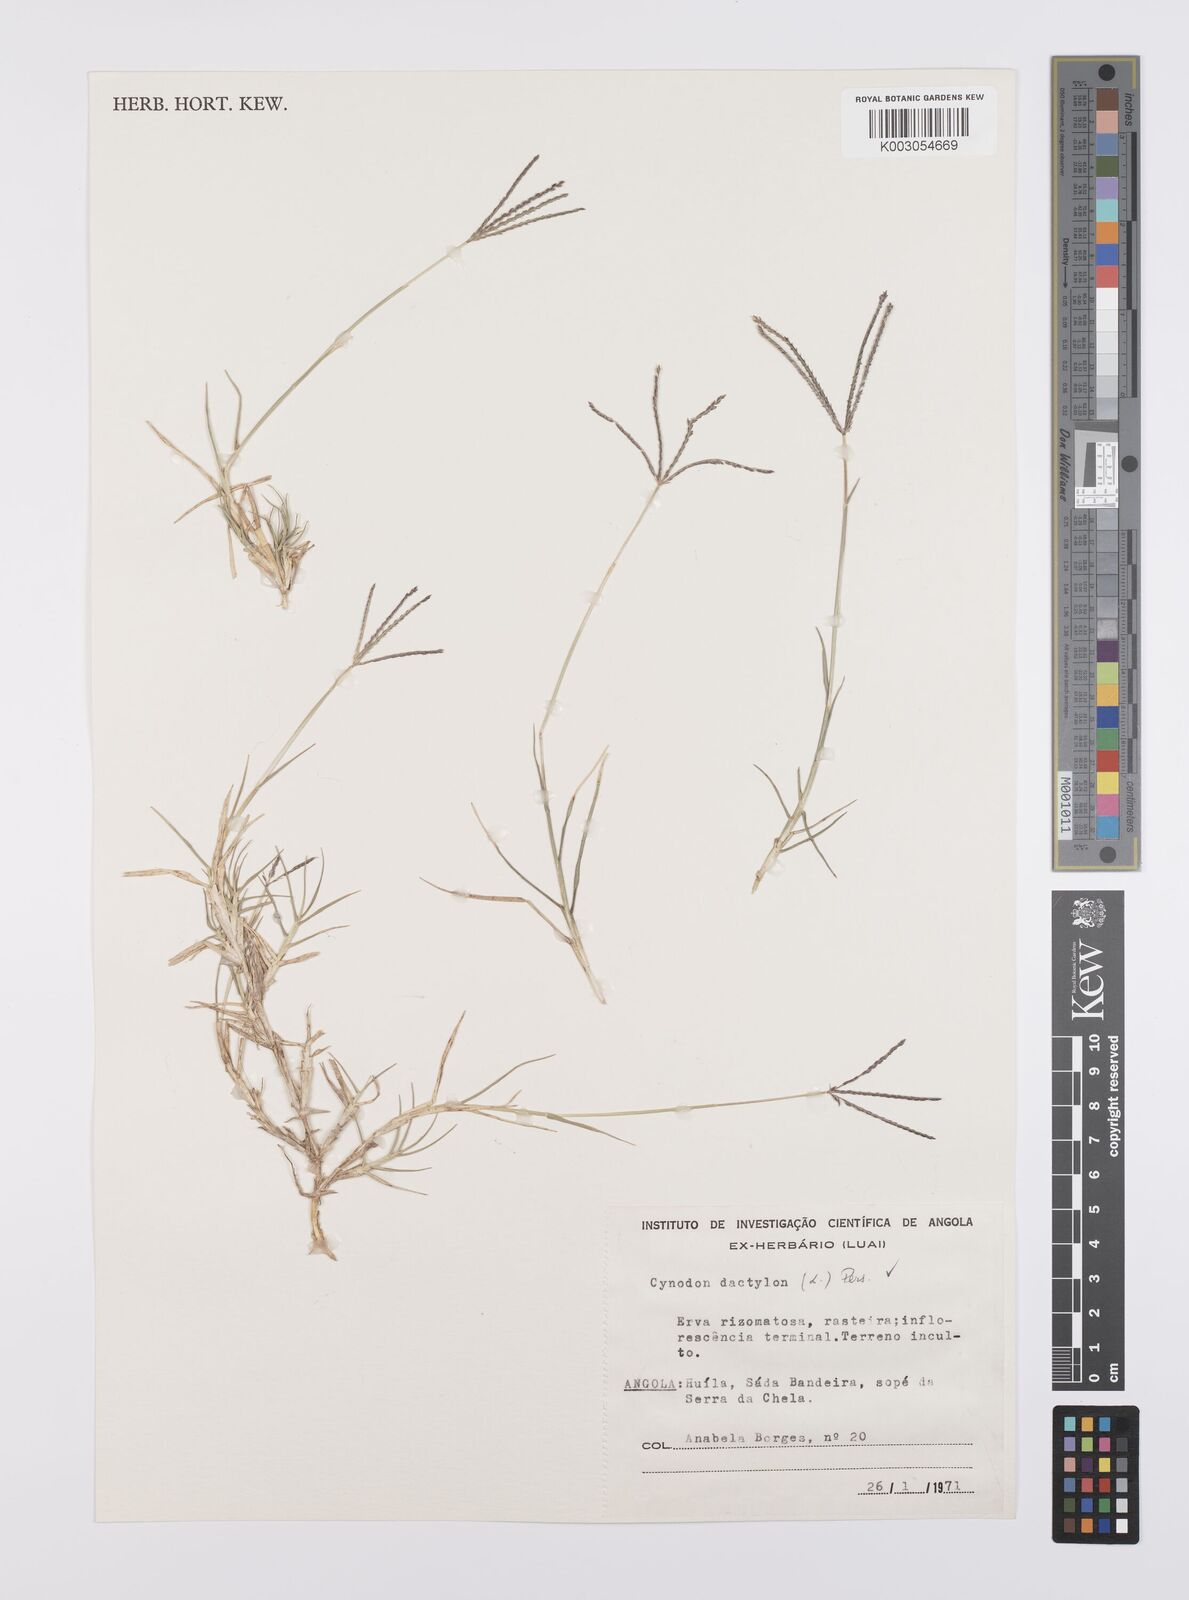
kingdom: Plantae
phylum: Tracheophyta
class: Liliopsida
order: Poales
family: Poaceae
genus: Cynodon
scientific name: Cynodon dactylon
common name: Bermuda grass
